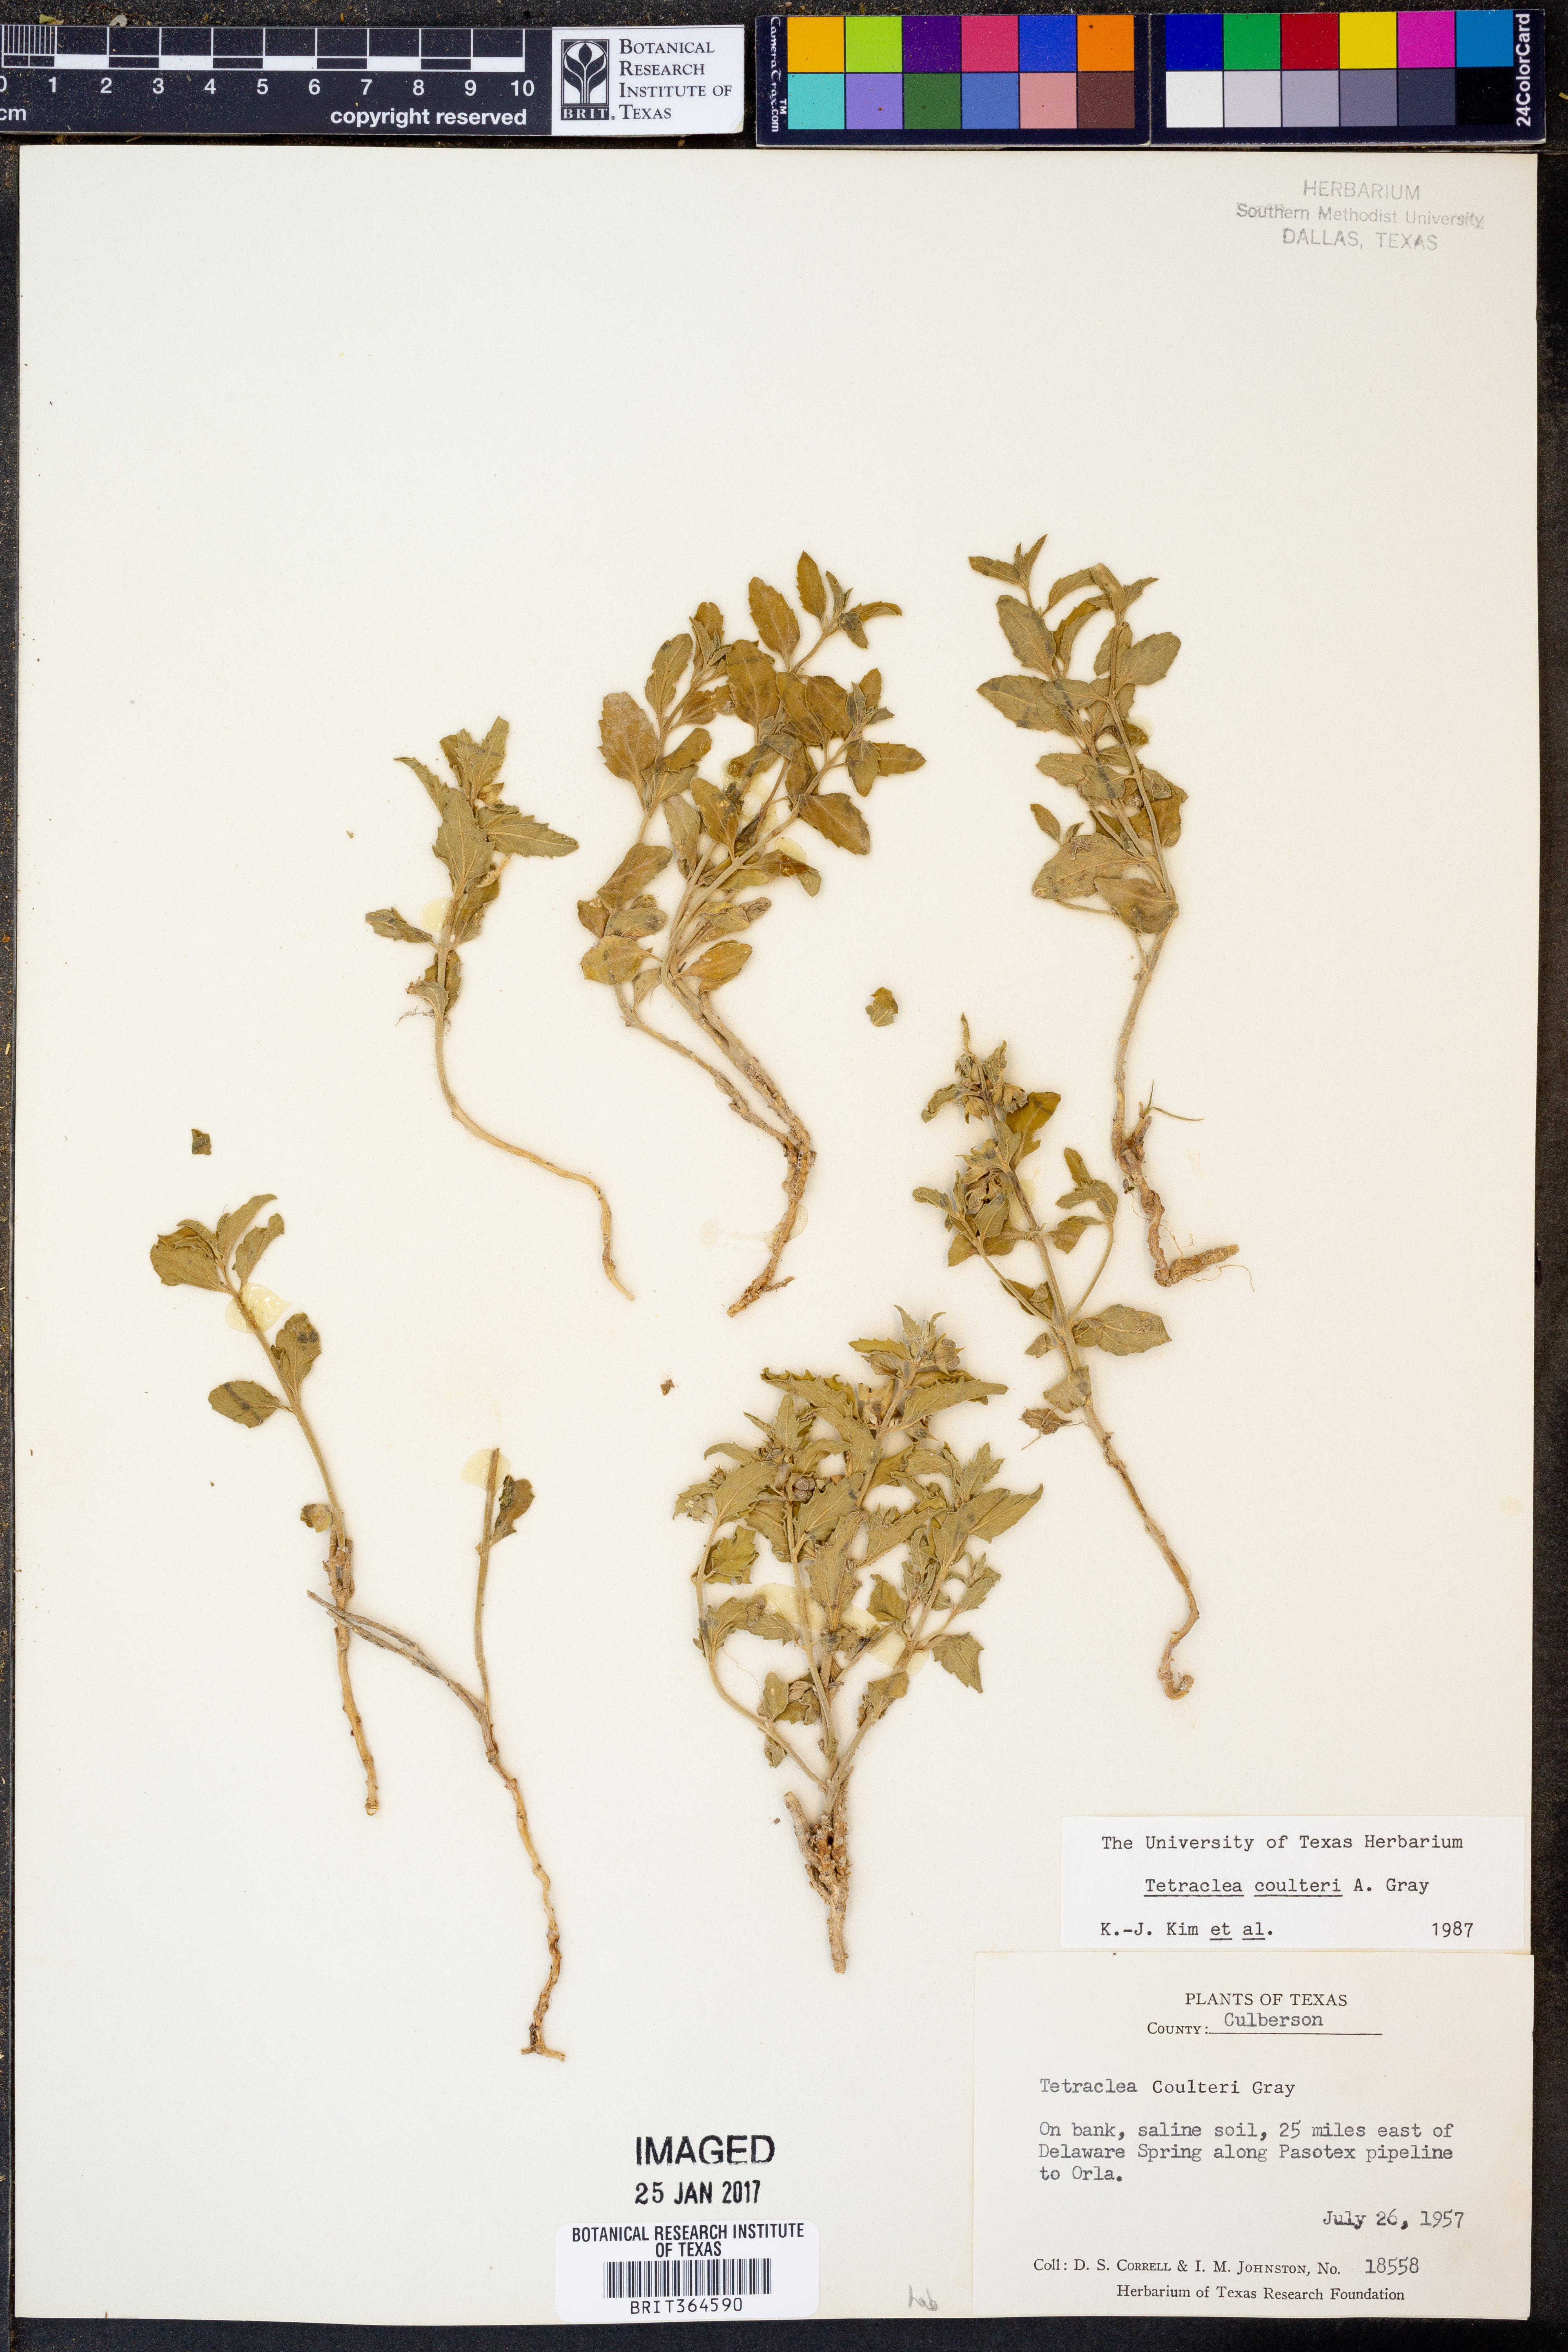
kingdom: Plantae
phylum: Tracheophyta
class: Magnoliopsida
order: Lamiales
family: Lamiaceae
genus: Tetraclea
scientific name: Tetraclea coulteri
